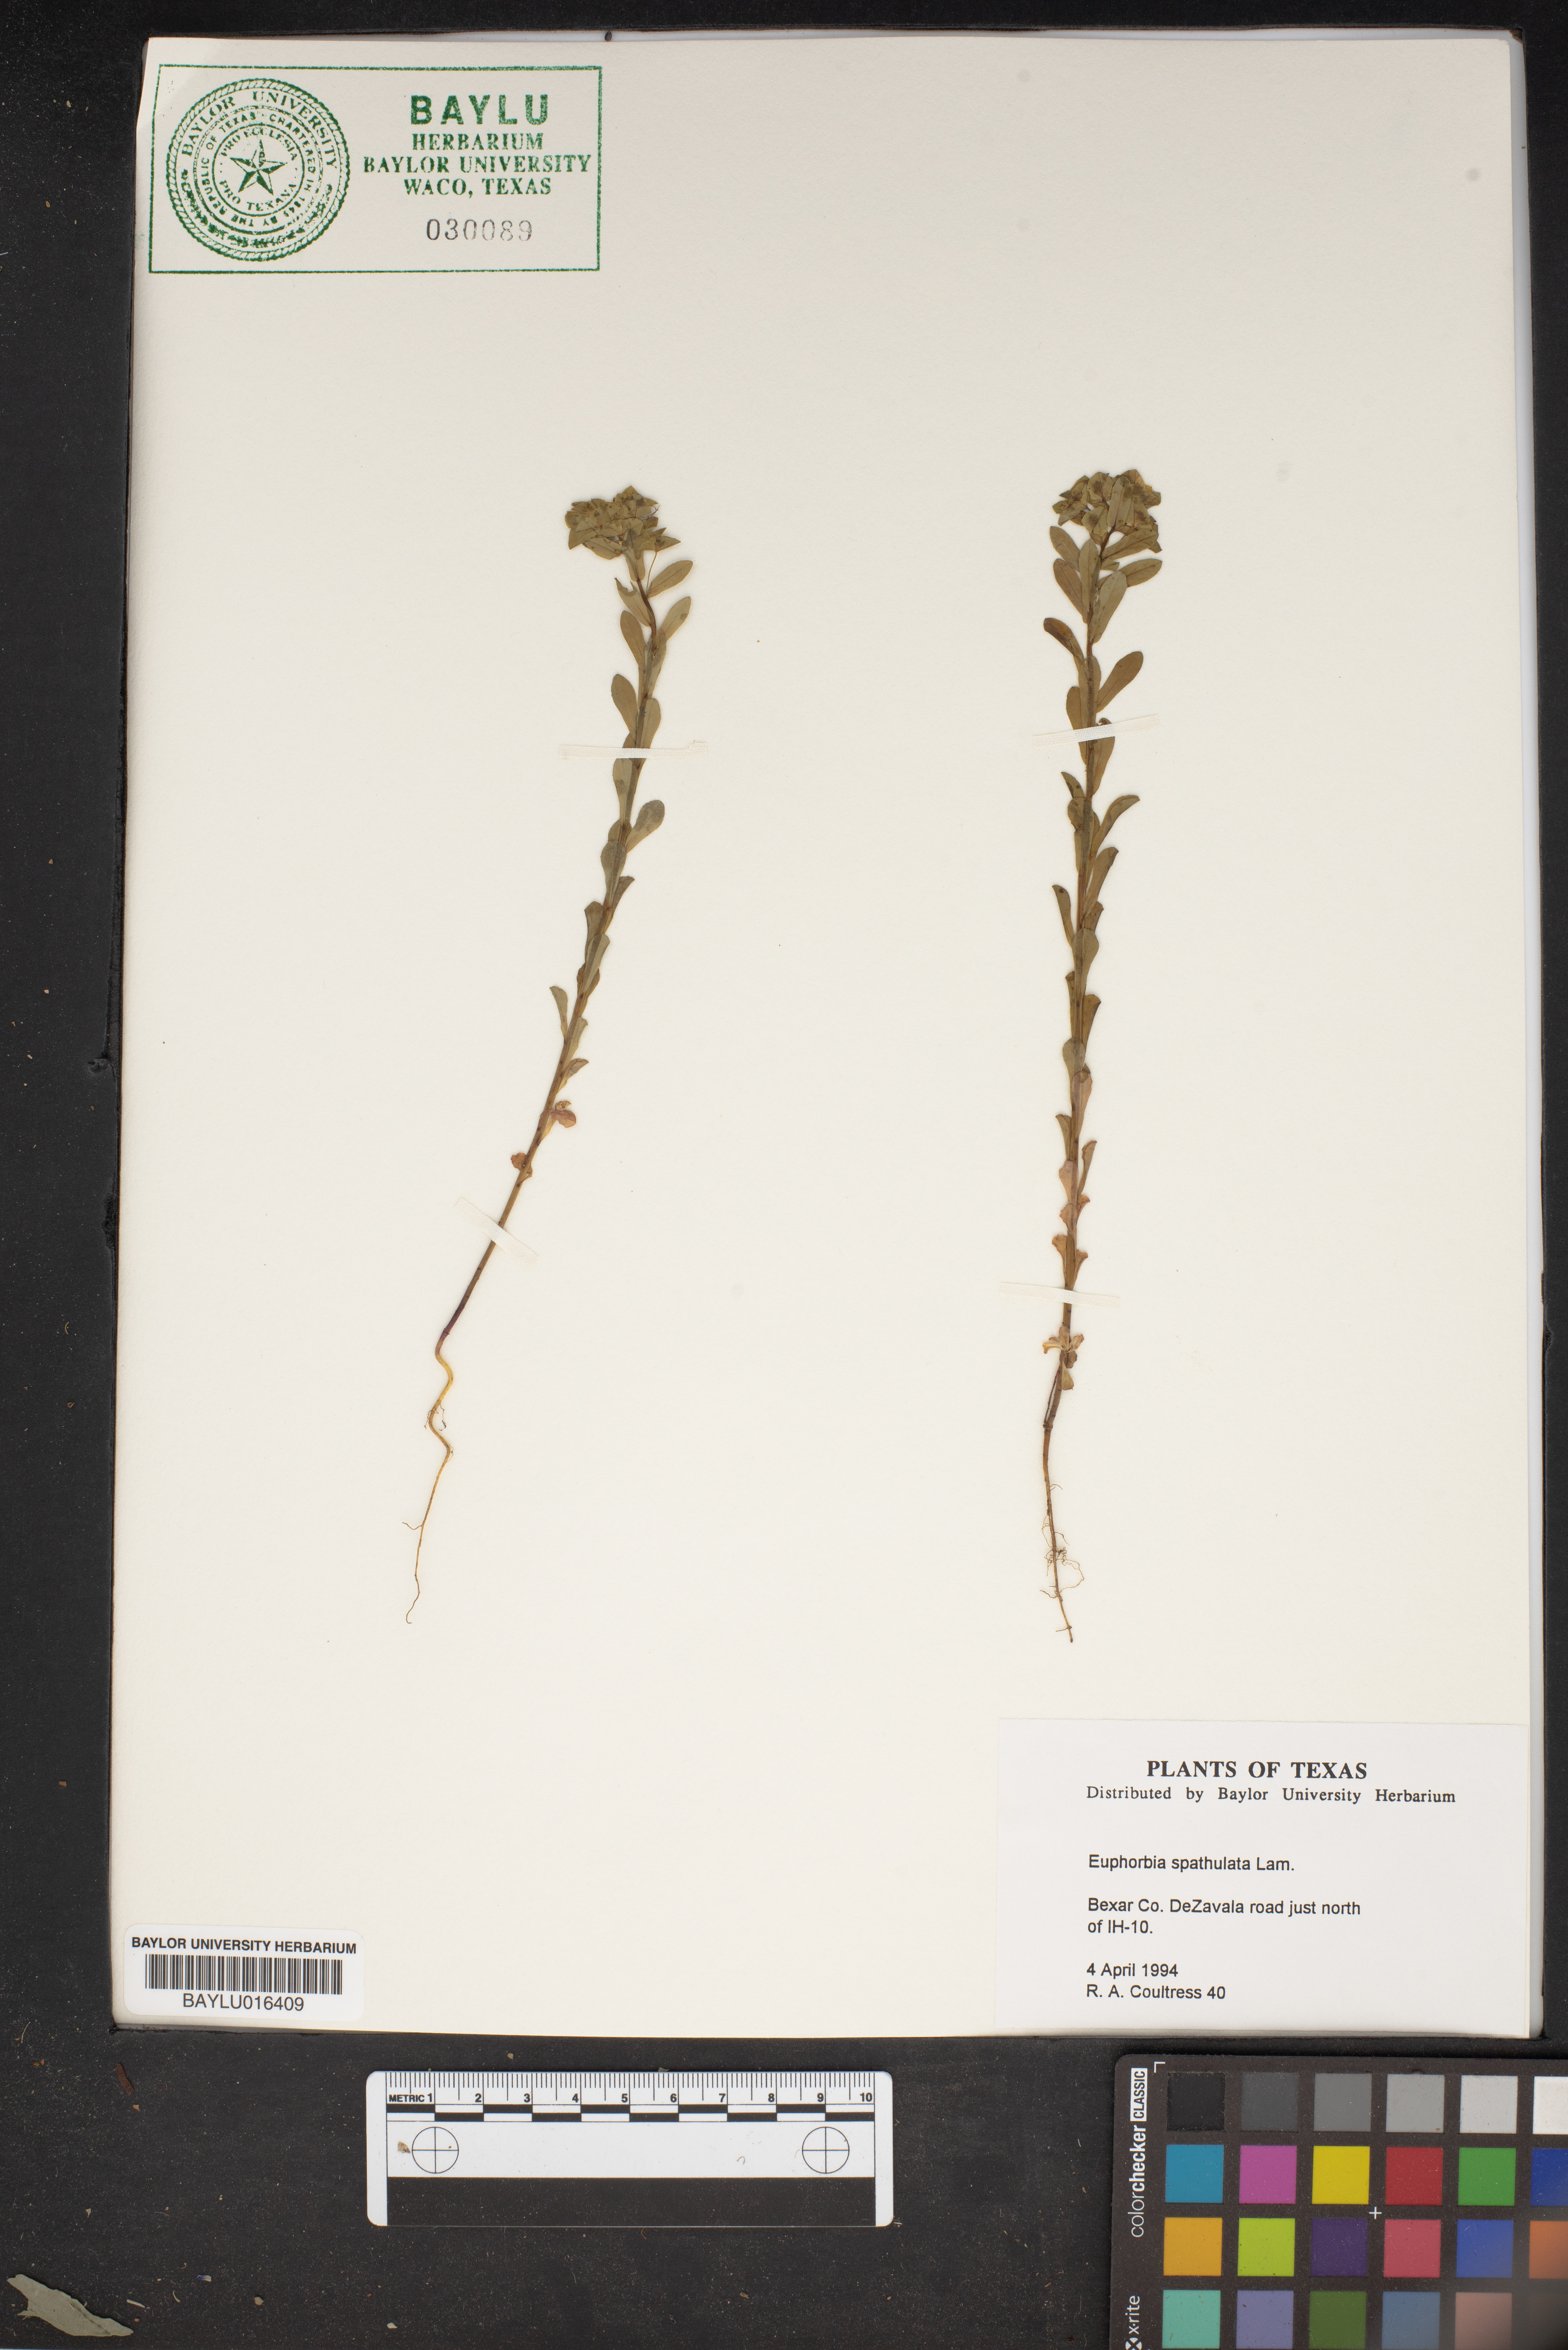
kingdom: Plantae
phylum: Tracheophyta
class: Magnoliopsida
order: Malpighiales
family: Euphorbiaceae
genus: Euphorbia
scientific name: Euphorbia spathulata
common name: Blunt spurge
